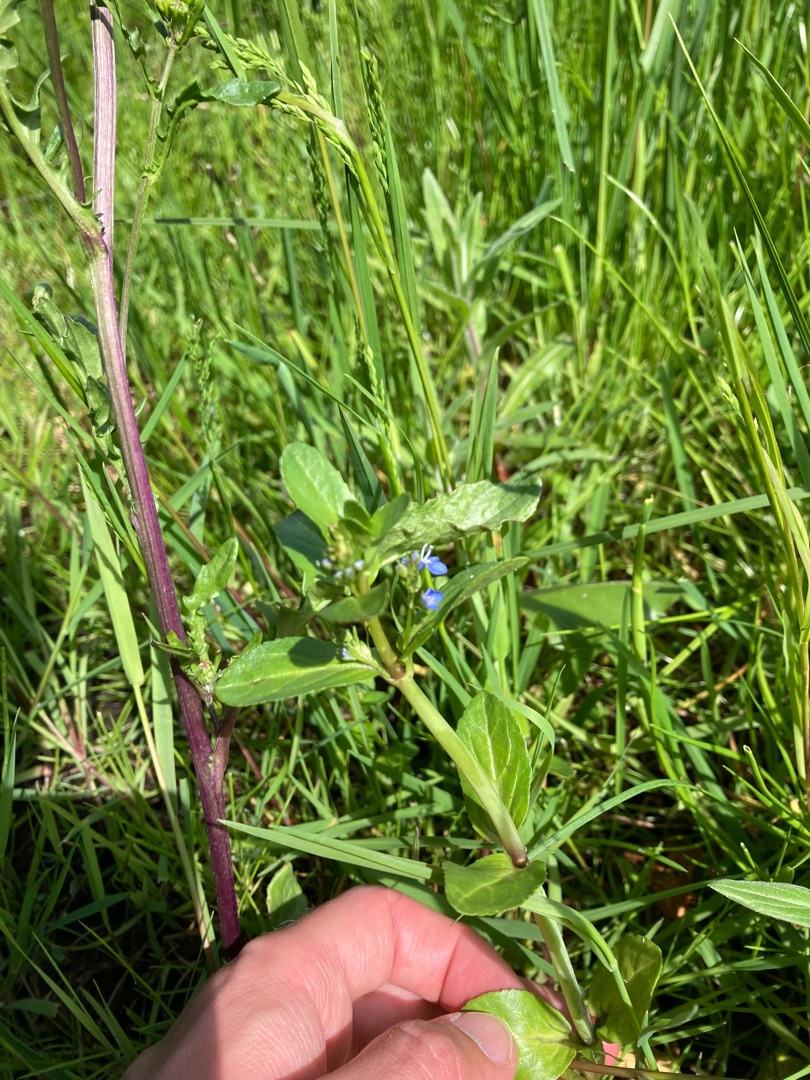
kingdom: Plantae
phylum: Tracheophyta
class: Magnoliopsida
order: Lamiales
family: Plantaginaceae
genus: Veronica
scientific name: Veronica beccabunga
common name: Tykbladet ærenpris
